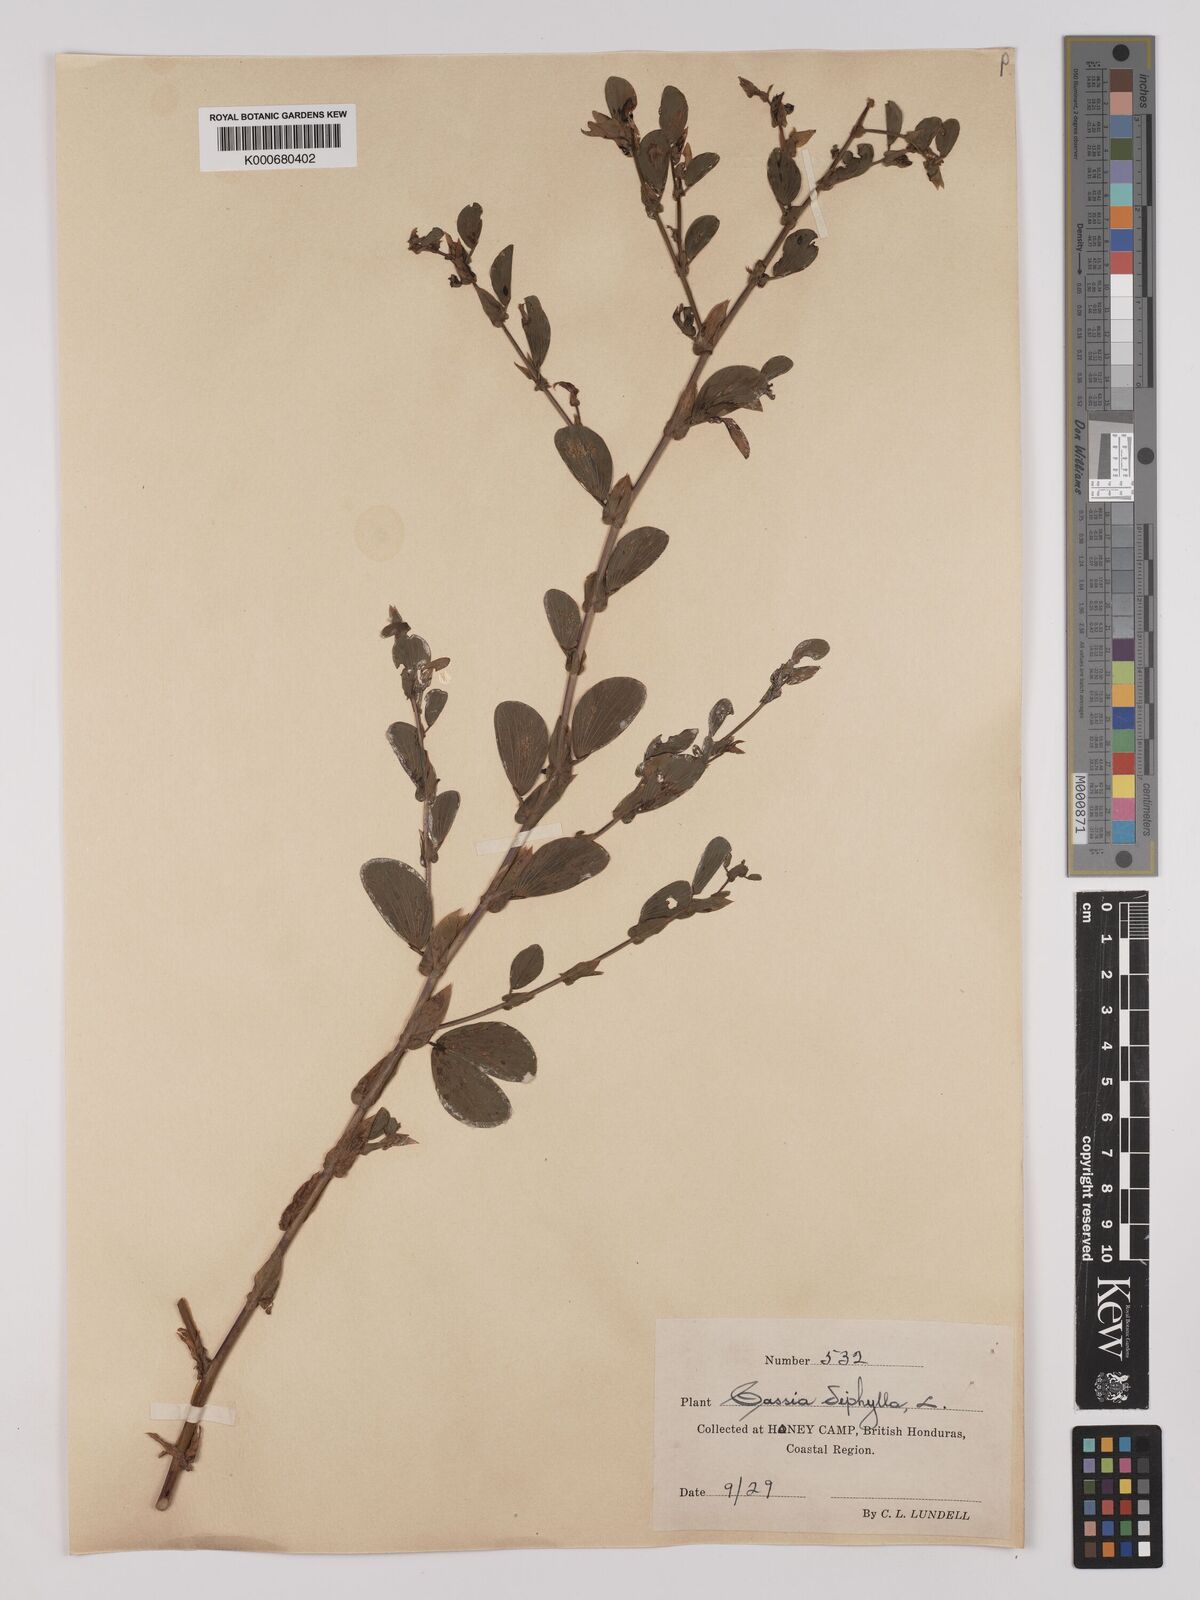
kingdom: Plantae
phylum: Tracheophyta
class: Magnoliopsida
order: Fabales
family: Fabaceae
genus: Chamaecrista
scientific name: Chamaecrista diphylla
